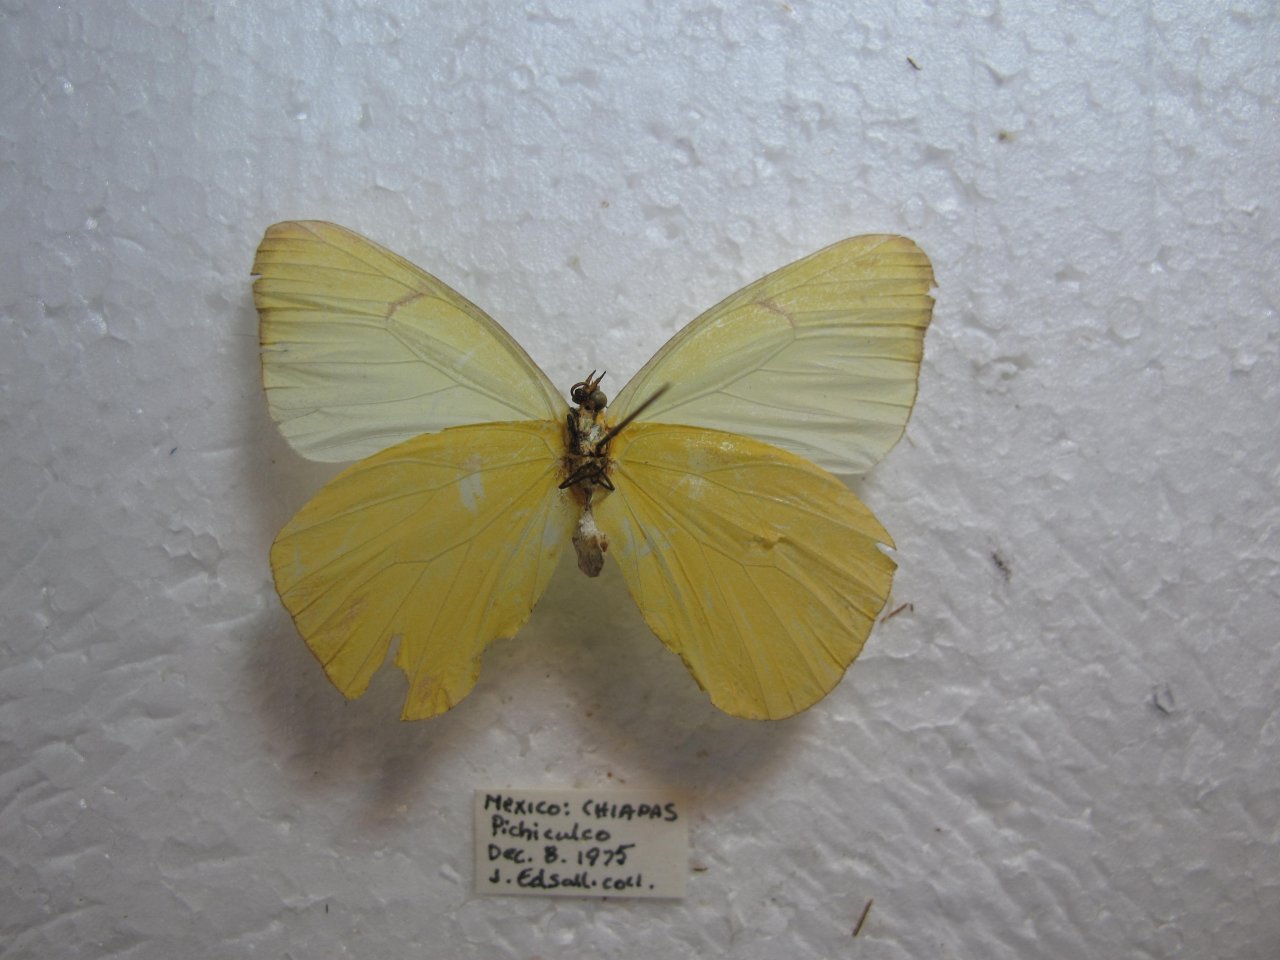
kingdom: Animalia
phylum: Arthropoda
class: Insecta
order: Lepidoptera
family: Pieridae
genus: Melete
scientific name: Melete lycimnia
